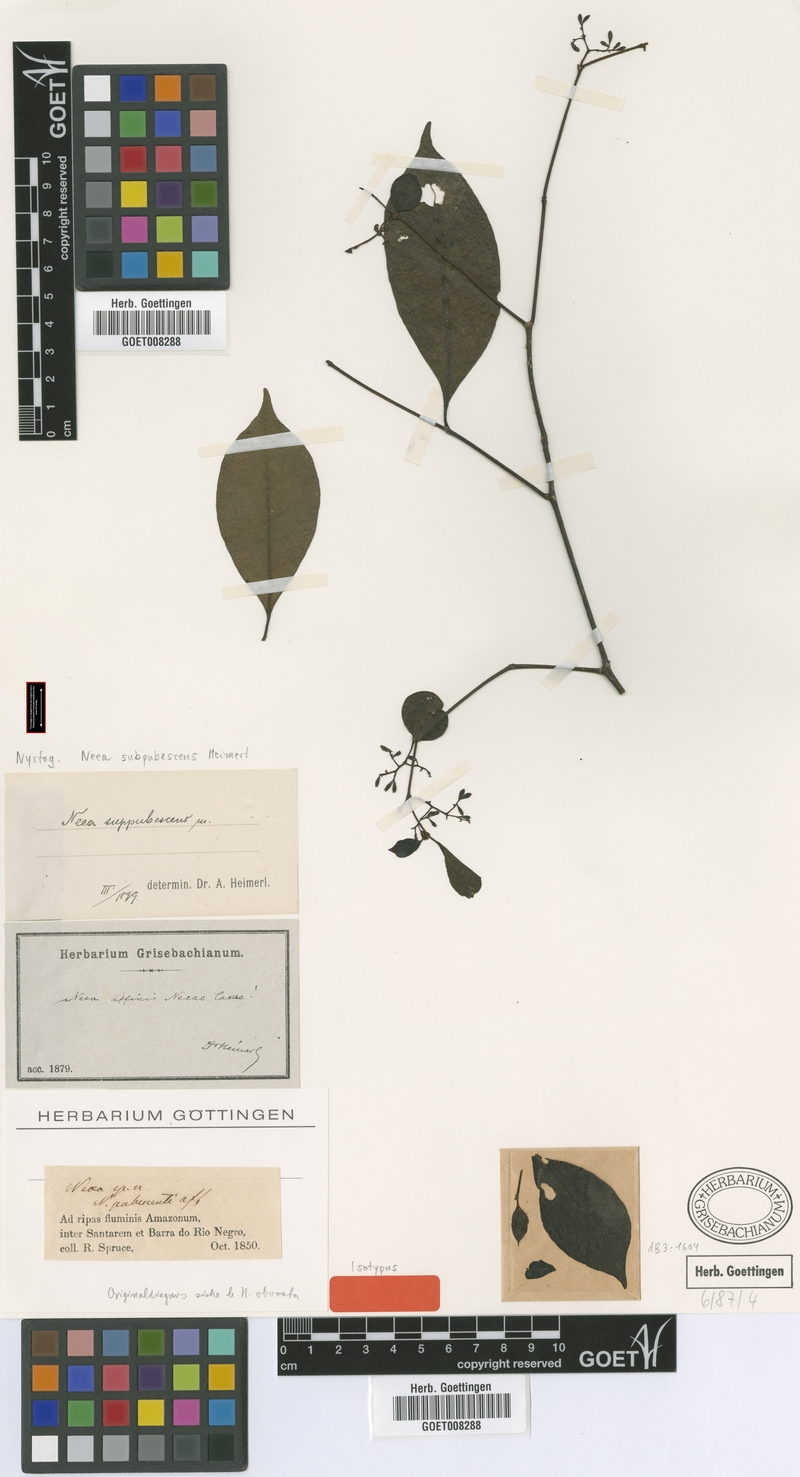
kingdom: Plantae
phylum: Tracheophyta
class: Magnoliopsida
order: Caryophyllales
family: Nyctaginaceae
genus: Neea
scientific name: Neea subpubescens
